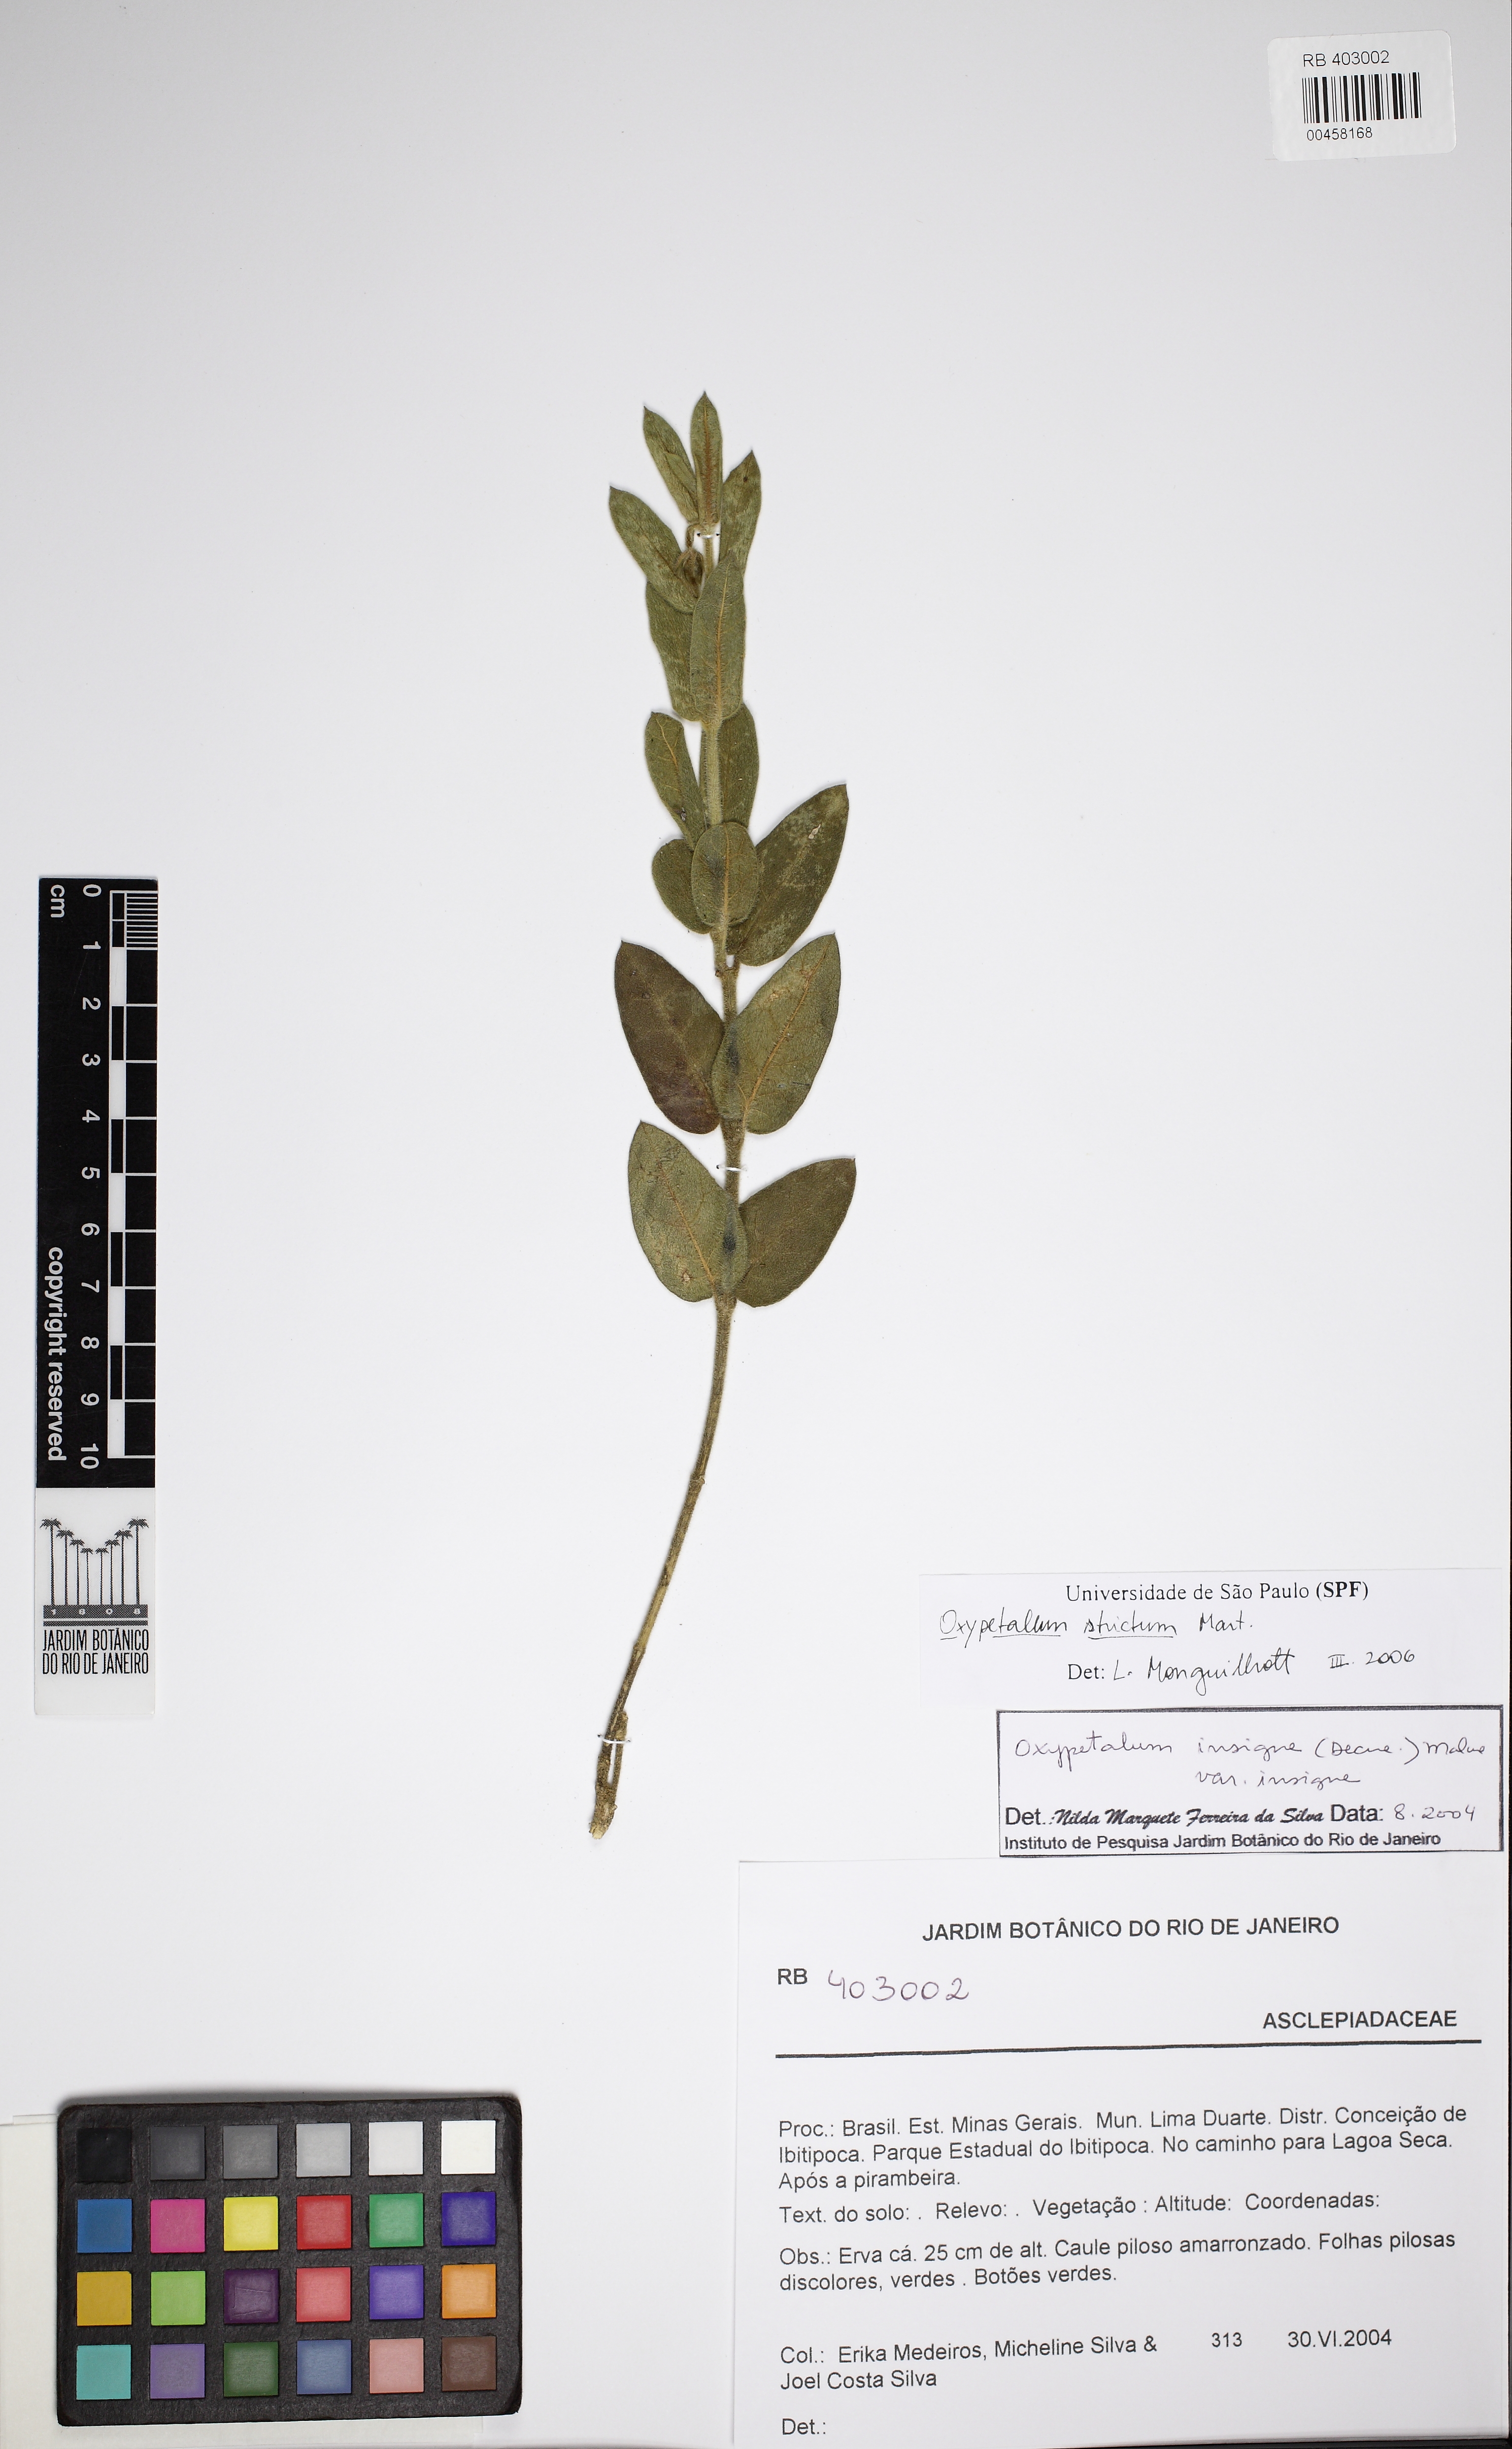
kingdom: Plantae
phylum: Tracheophyta
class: Magnoliopsida
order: Gentianales
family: Apocynaceae
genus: Oxypetalum
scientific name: Oxypetalum strictum
